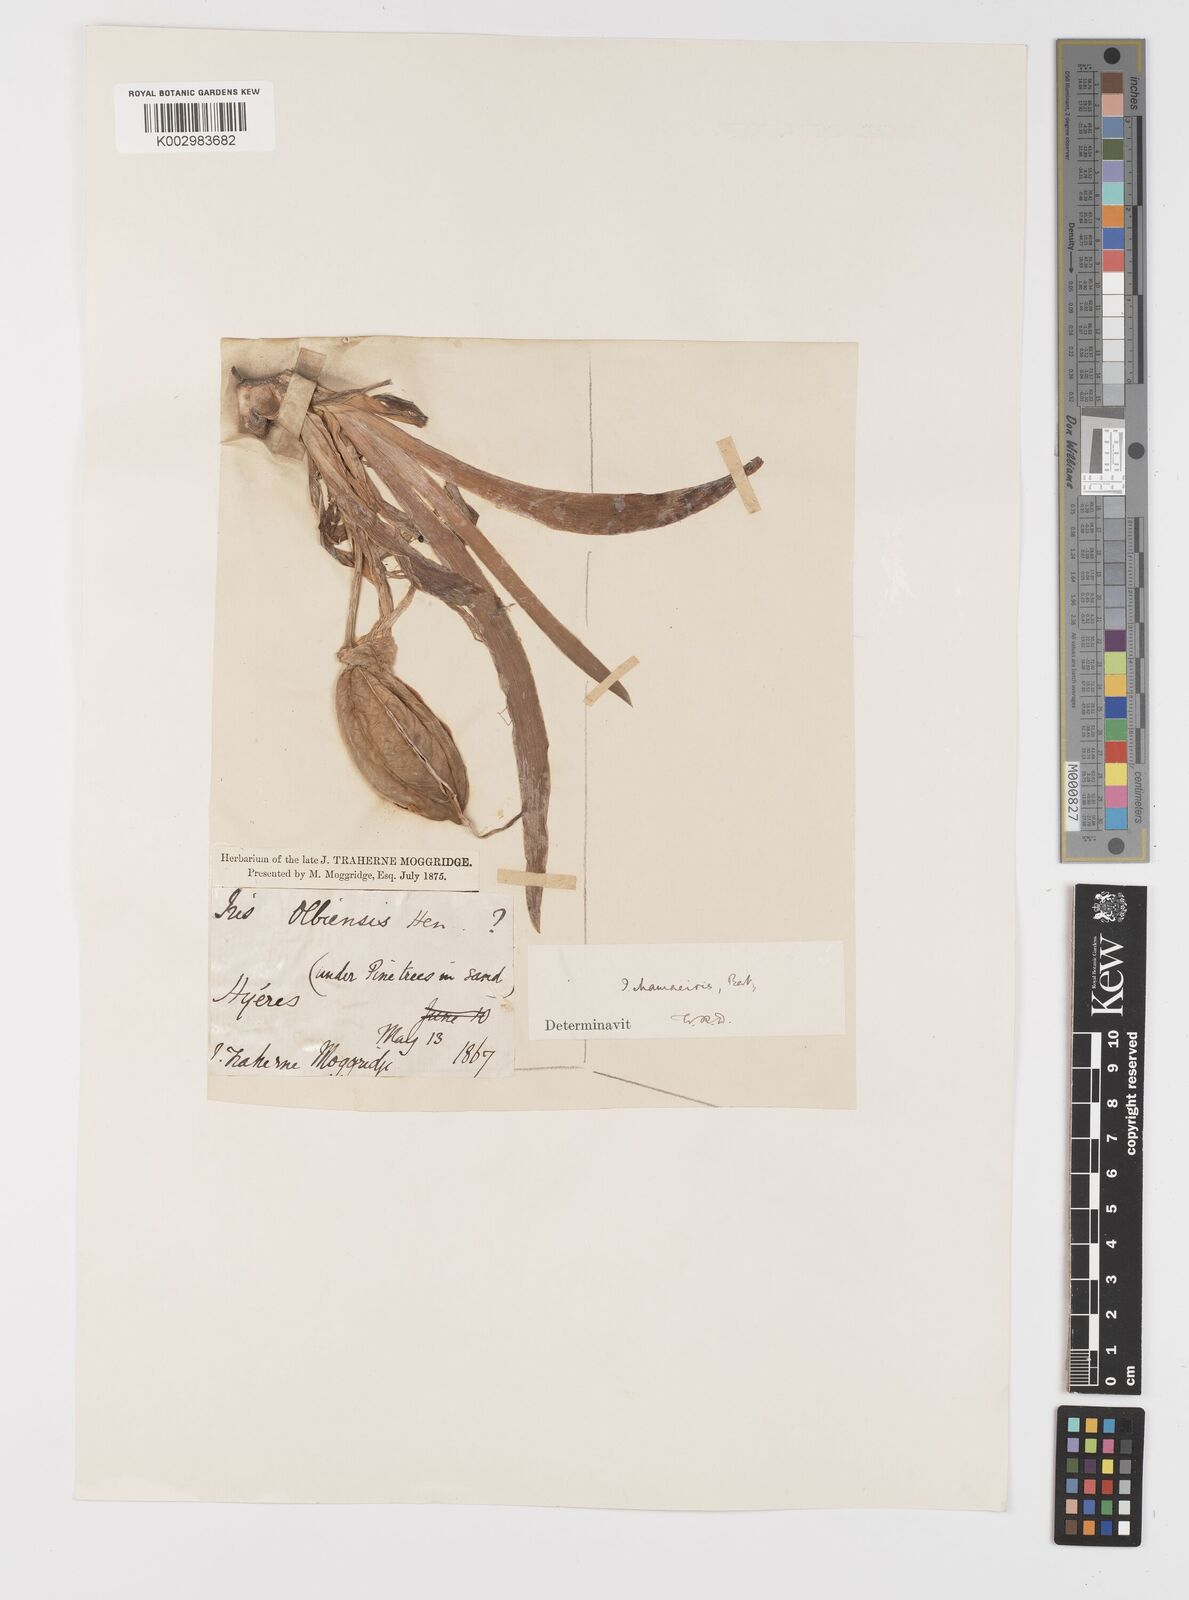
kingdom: Plantae
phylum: Tracheophyta
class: Liliopsida
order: Asparagales
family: Iridaceae
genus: Iris
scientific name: Iris lutescens
